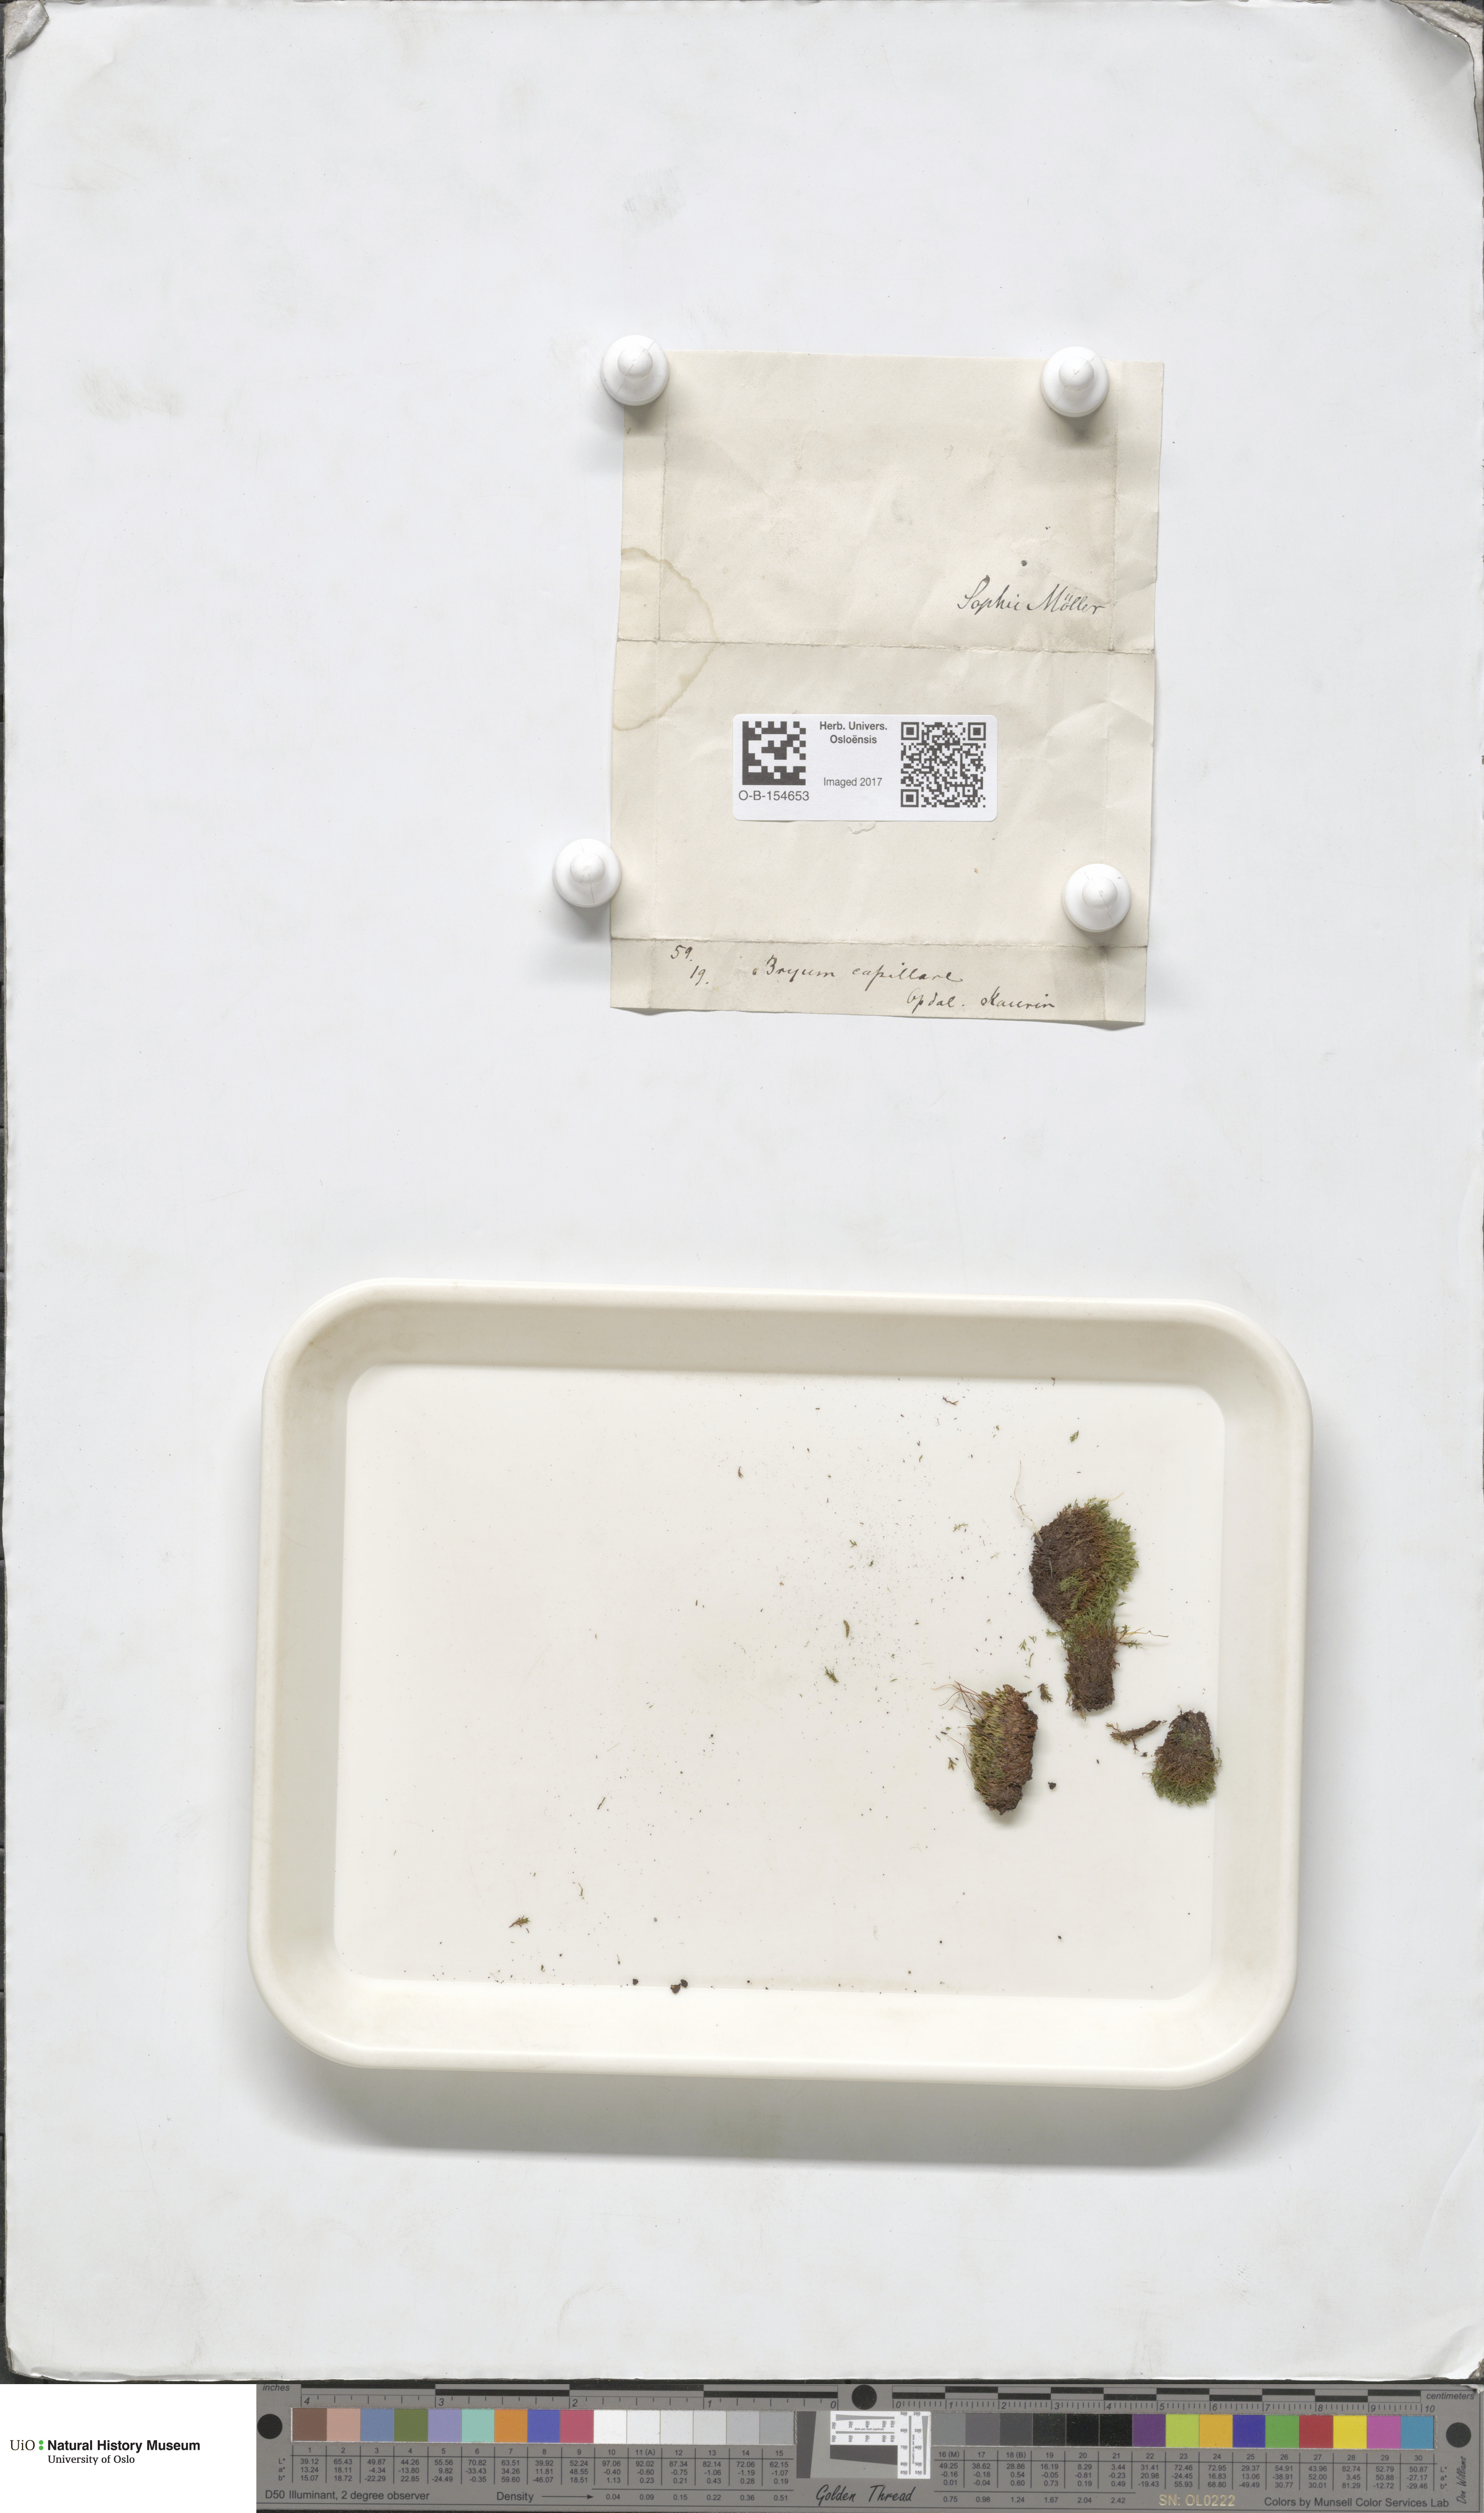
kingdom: Plantae
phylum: Bryophyta
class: Bryopsida
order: Bryales
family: Bryaceae
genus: Rosulabryum
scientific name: Rosulabryum capillare
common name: Capillary thread-moss
